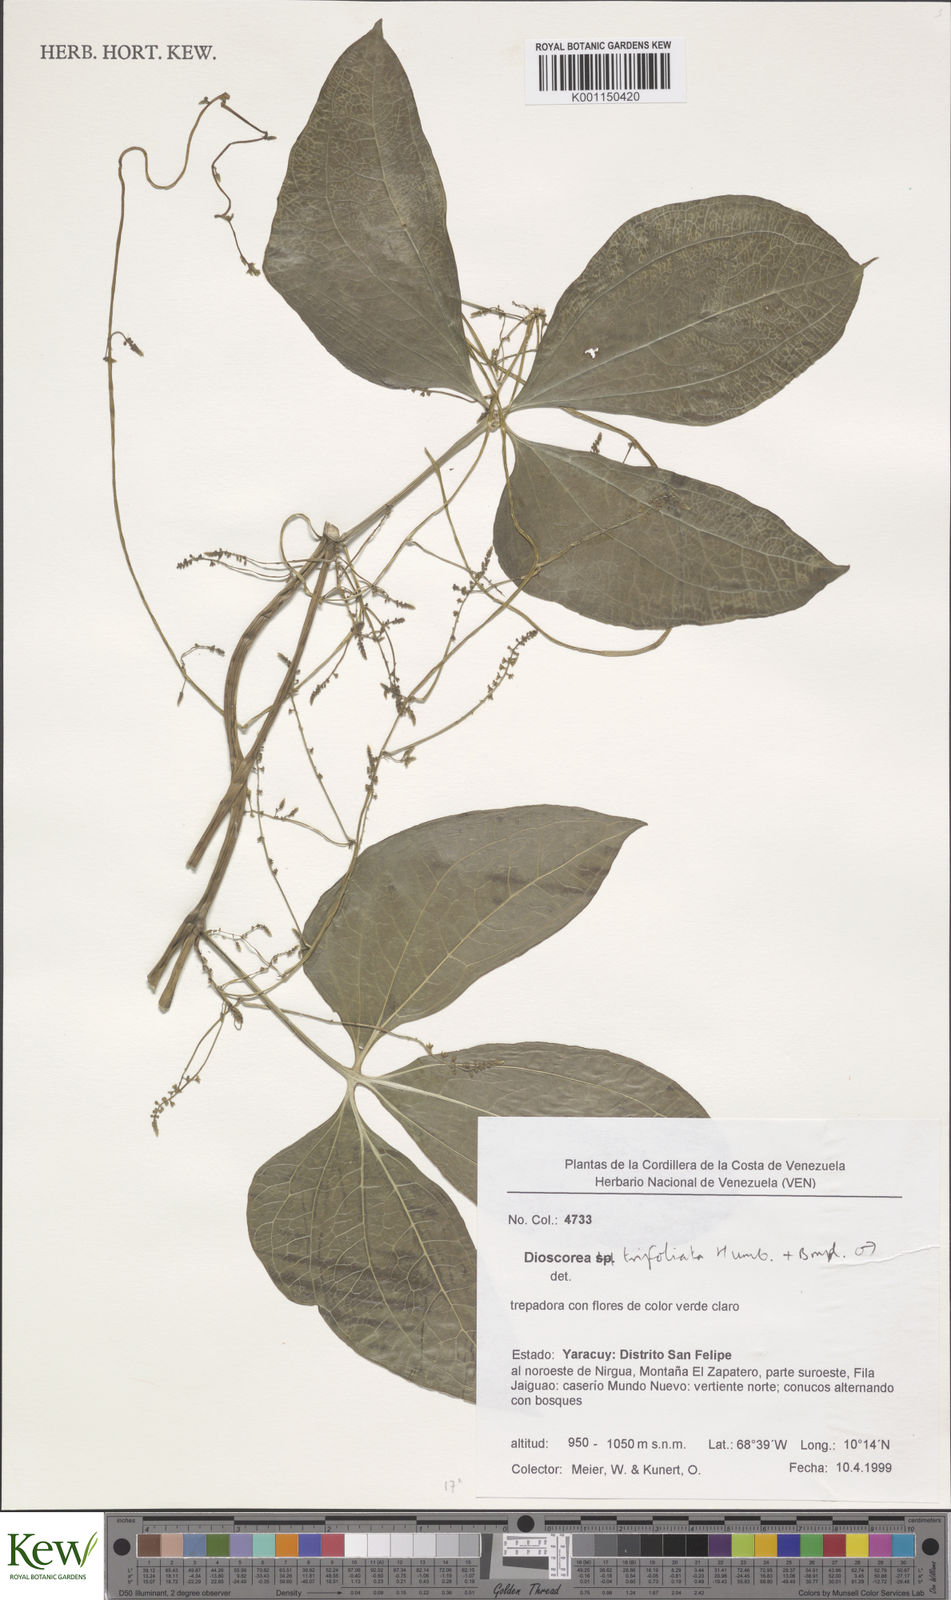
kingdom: Plantae
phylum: Tracheophyta
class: Liliopsida
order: Dioscoreales
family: Dioscoreaceae
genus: Dioscorea
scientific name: Dioscorea trifoliata
